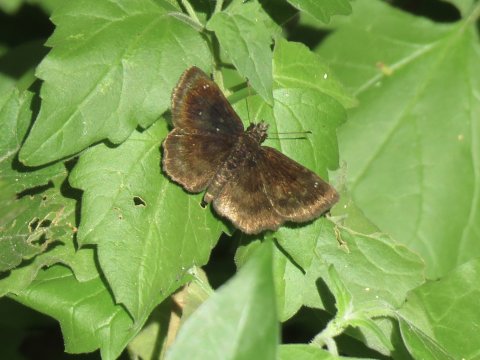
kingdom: Animalia
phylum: Arthropoda
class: Insecta
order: Lepidoptera
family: Hesperiidae
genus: Staphylus
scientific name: Staphylus mazans
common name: Mazans Scallopwing
